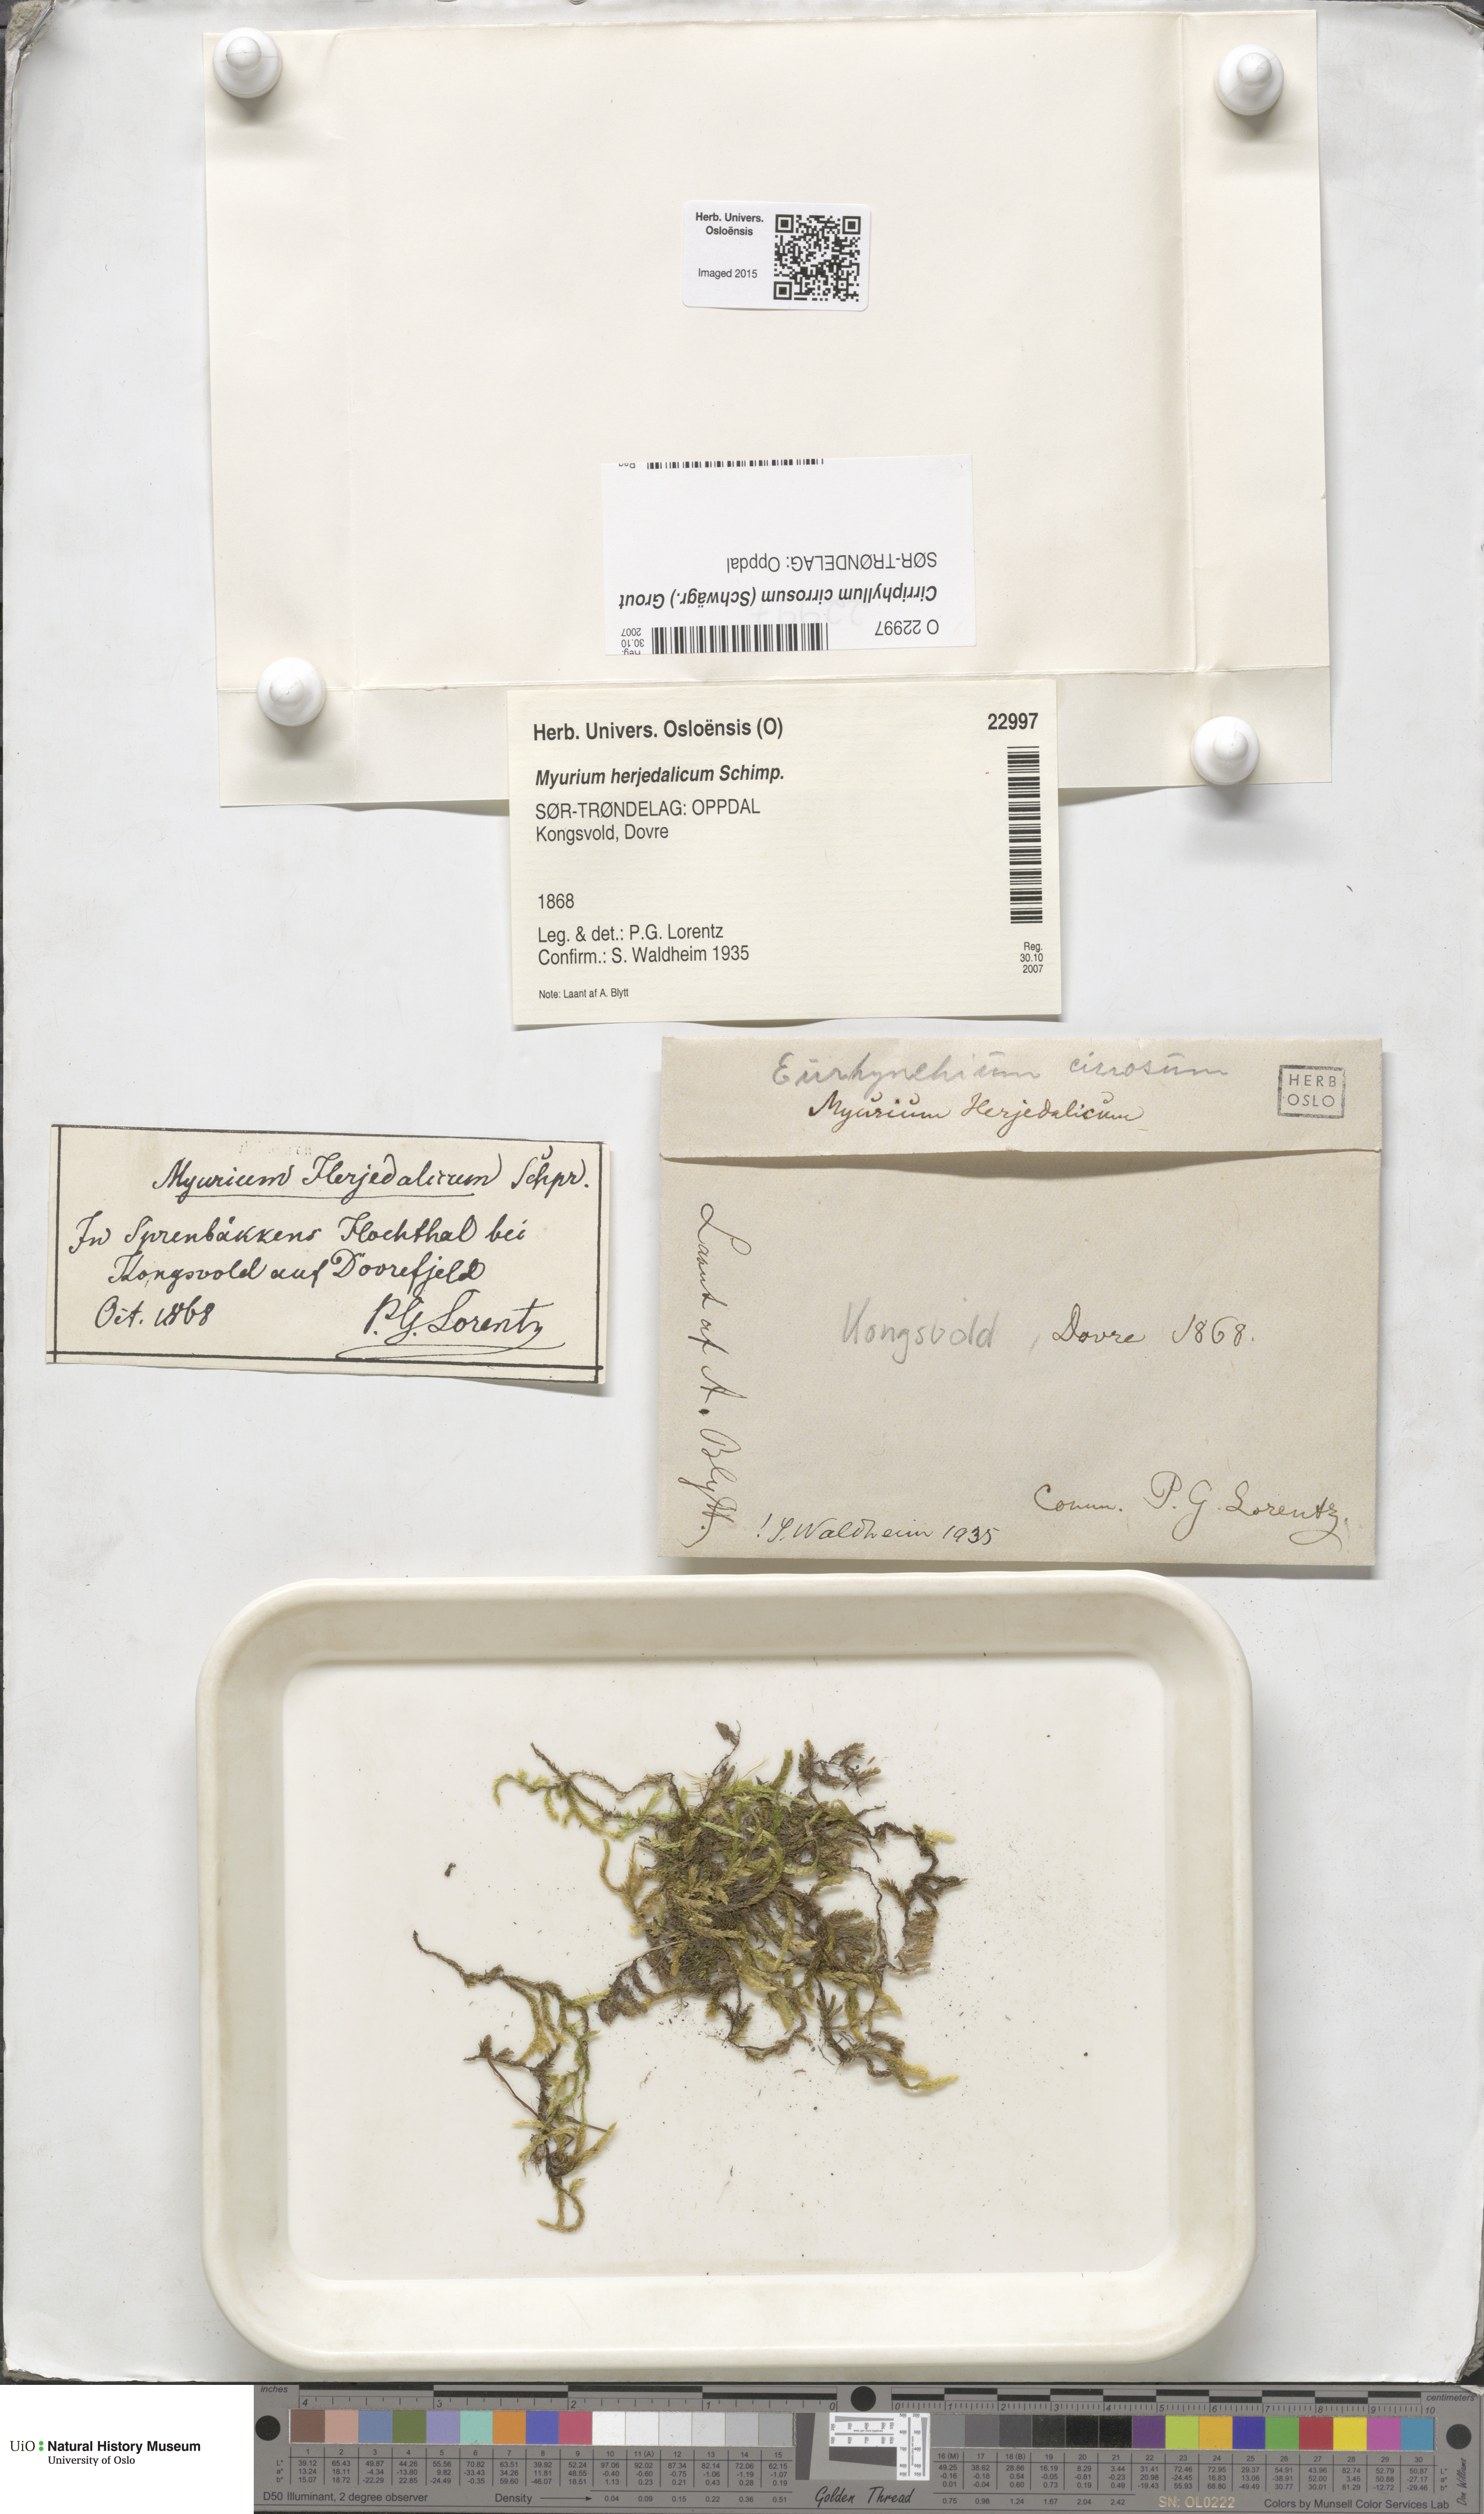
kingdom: Plantae
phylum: Bryophyta
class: Bryopsida
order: Hypnales
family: Brachytheciaceae
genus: Brachythecium
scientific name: Brachythecium cirrosum
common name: Tendril feather-moss
